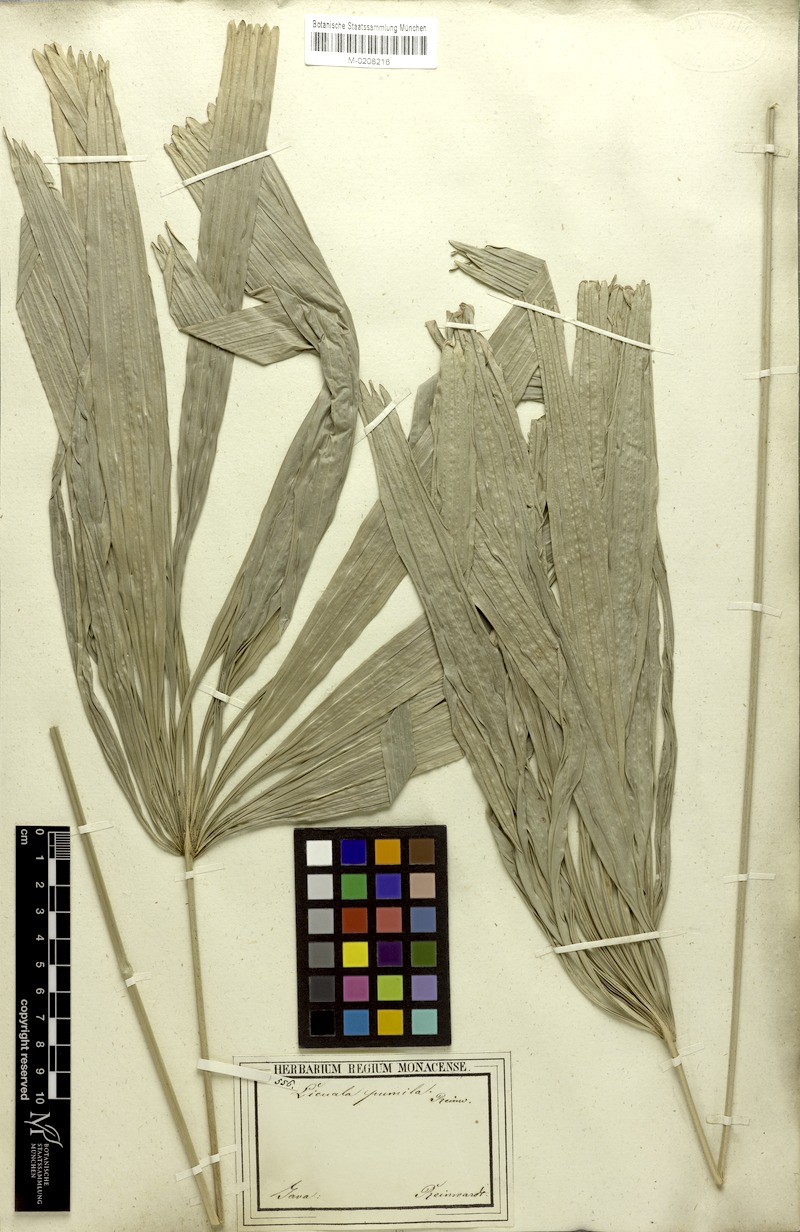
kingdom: Plantae
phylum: Tracheophyta
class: Liliopsida
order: Arecales
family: Arecaceae
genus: Licuala
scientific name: Licuala pumila
